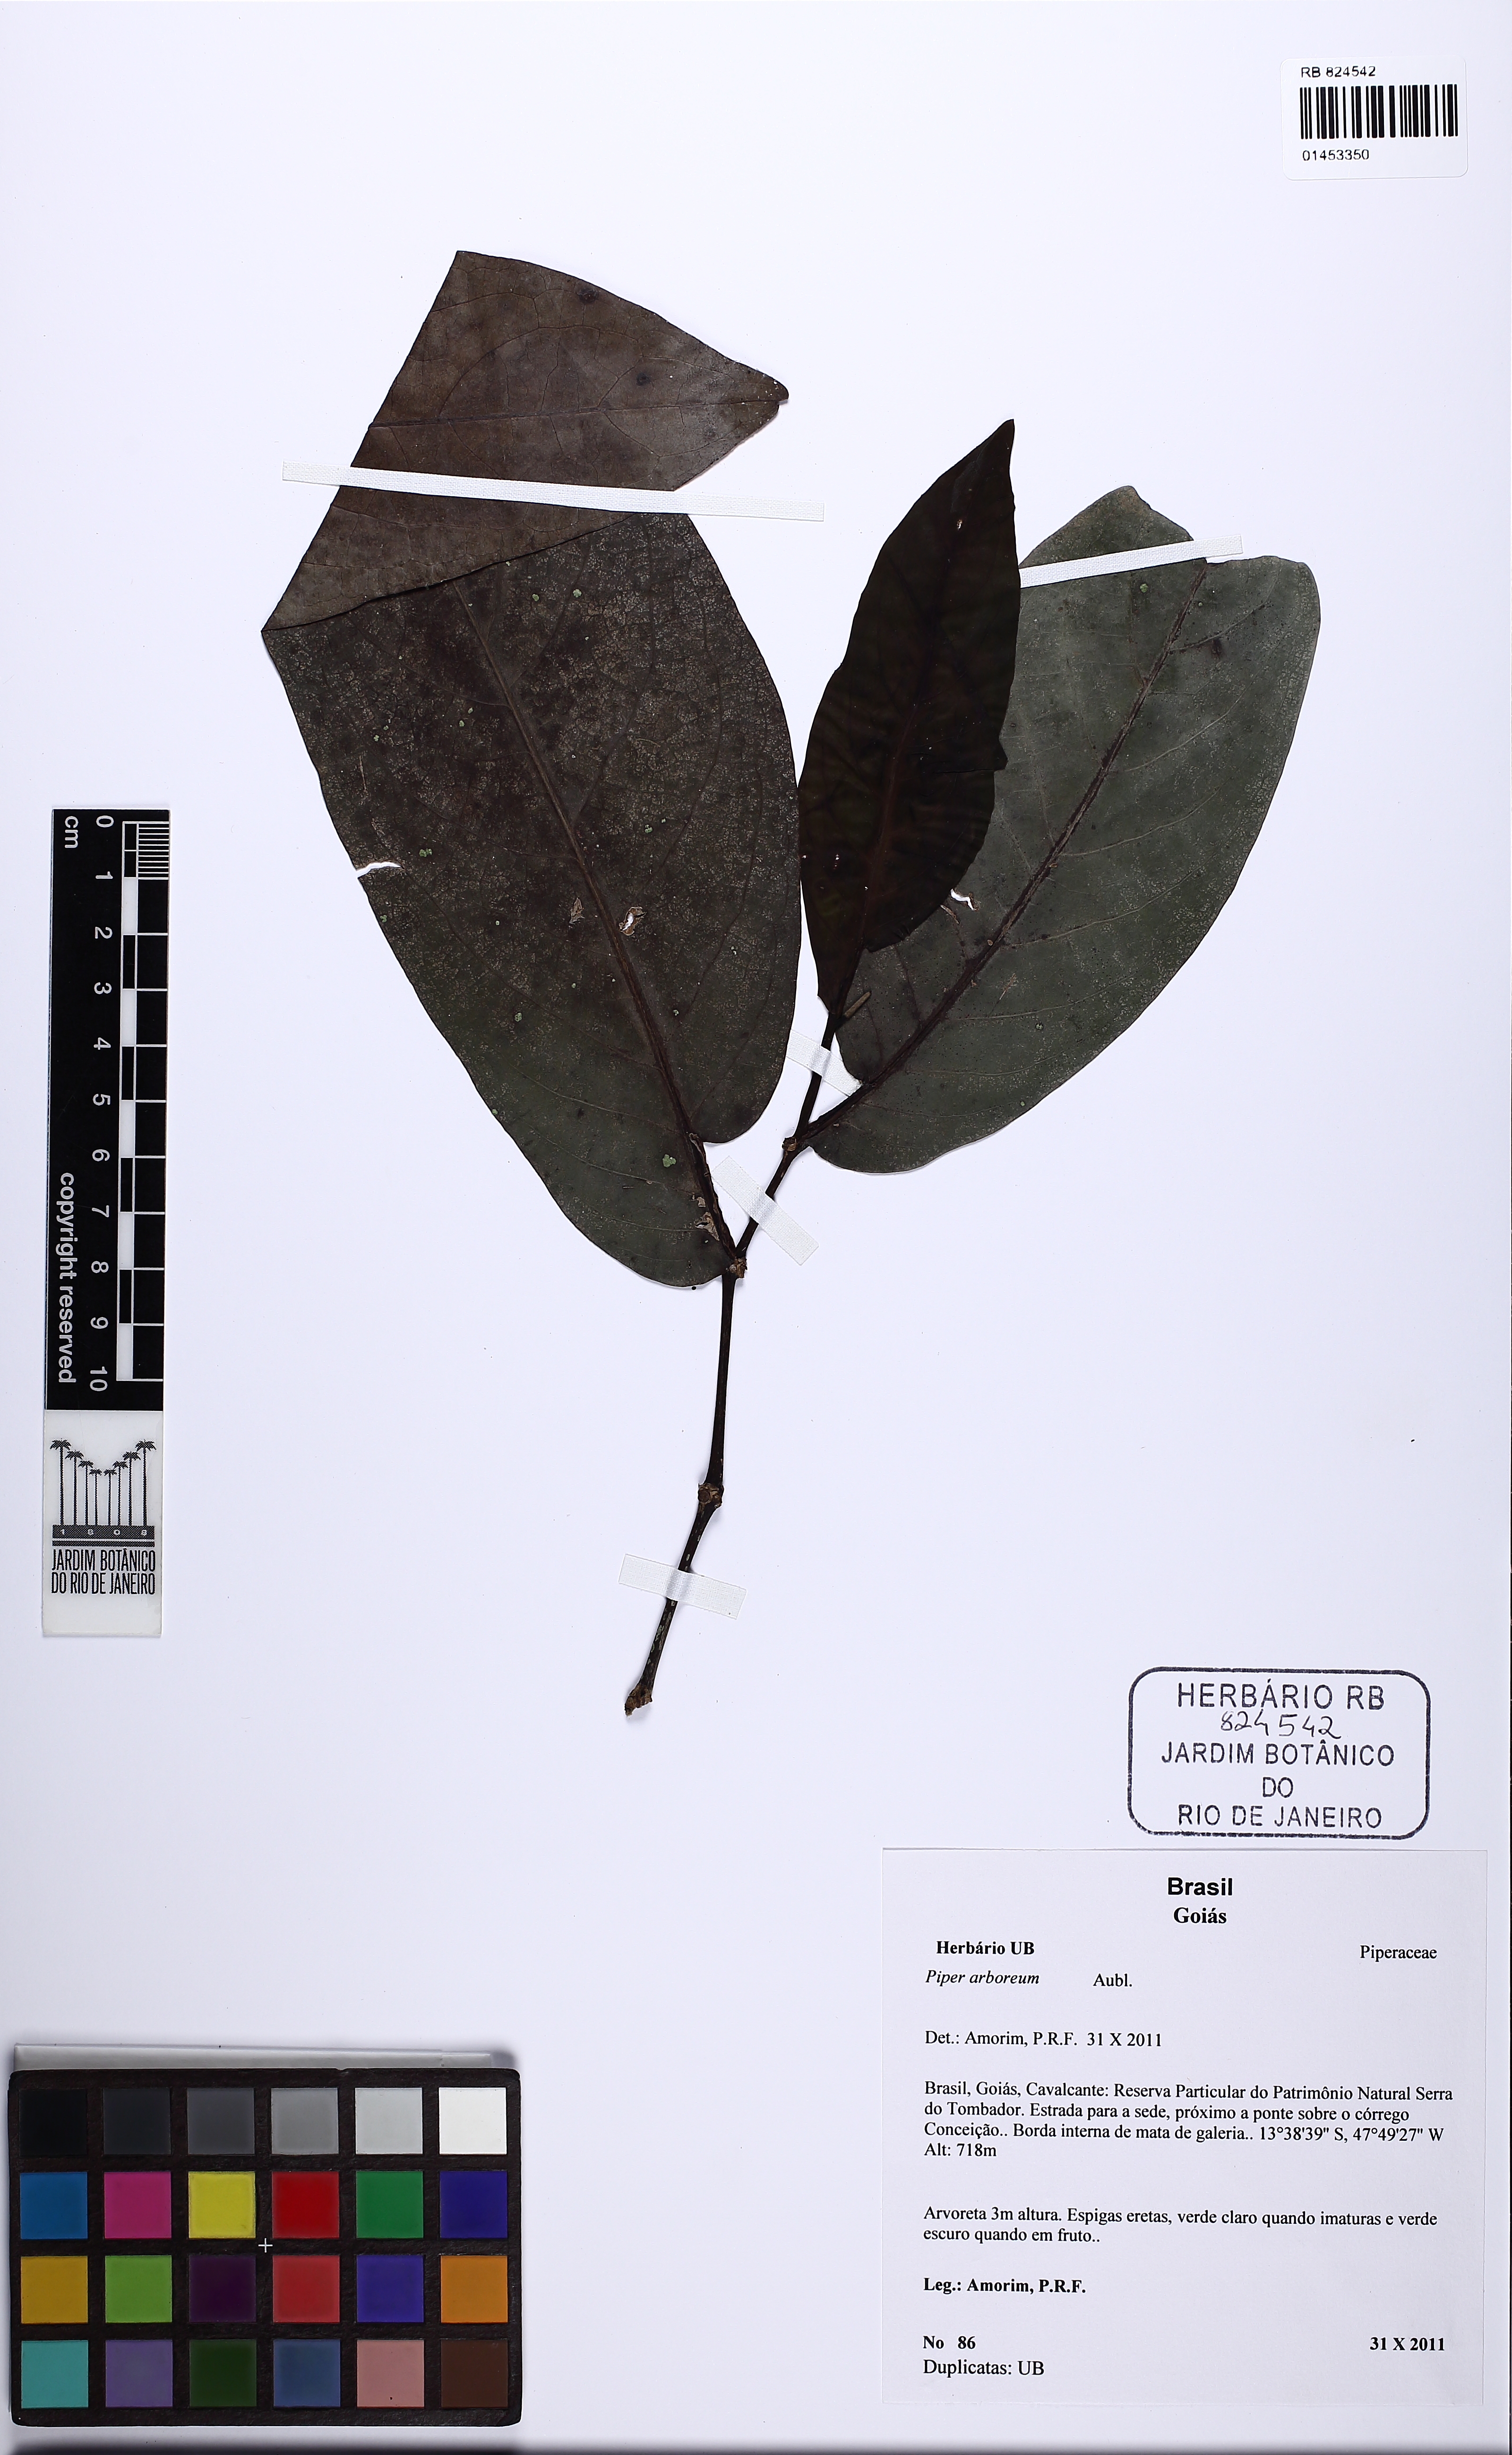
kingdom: Plantae
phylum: Tracheophyta
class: Magnoliopsida
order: Piperales
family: Piperaceae
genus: Piper
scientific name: Piper arboreum
